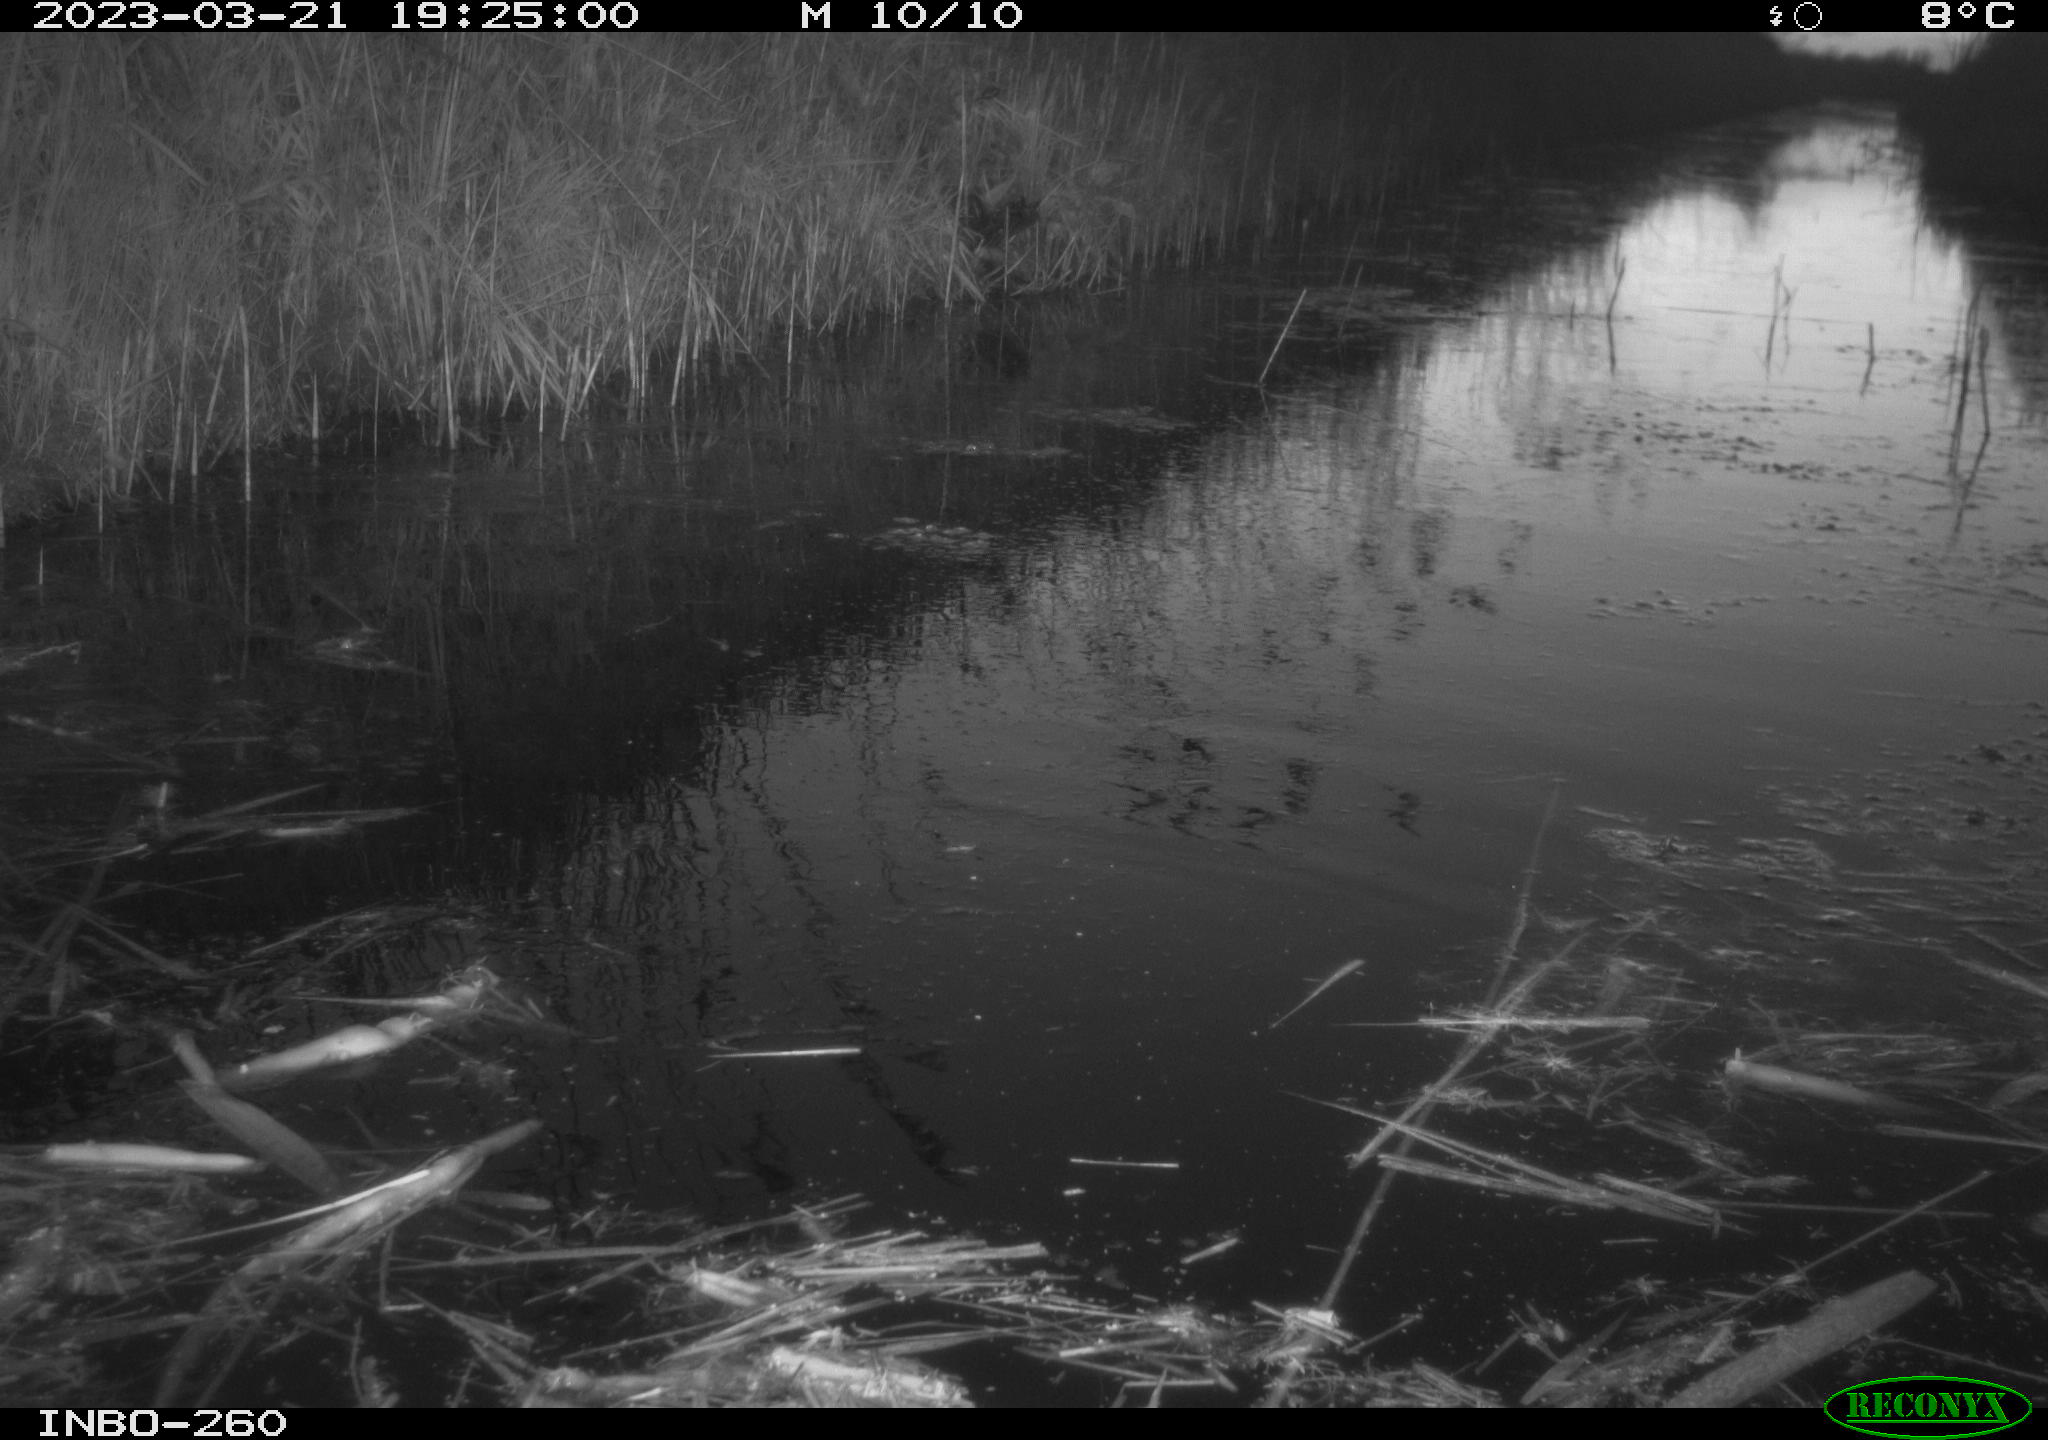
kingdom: Animalia
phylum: Chordata
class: Aves
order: Gruiformes
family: Rallidae
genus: Gallinula
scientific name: Gallinula chloropus
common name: Common moorhen
